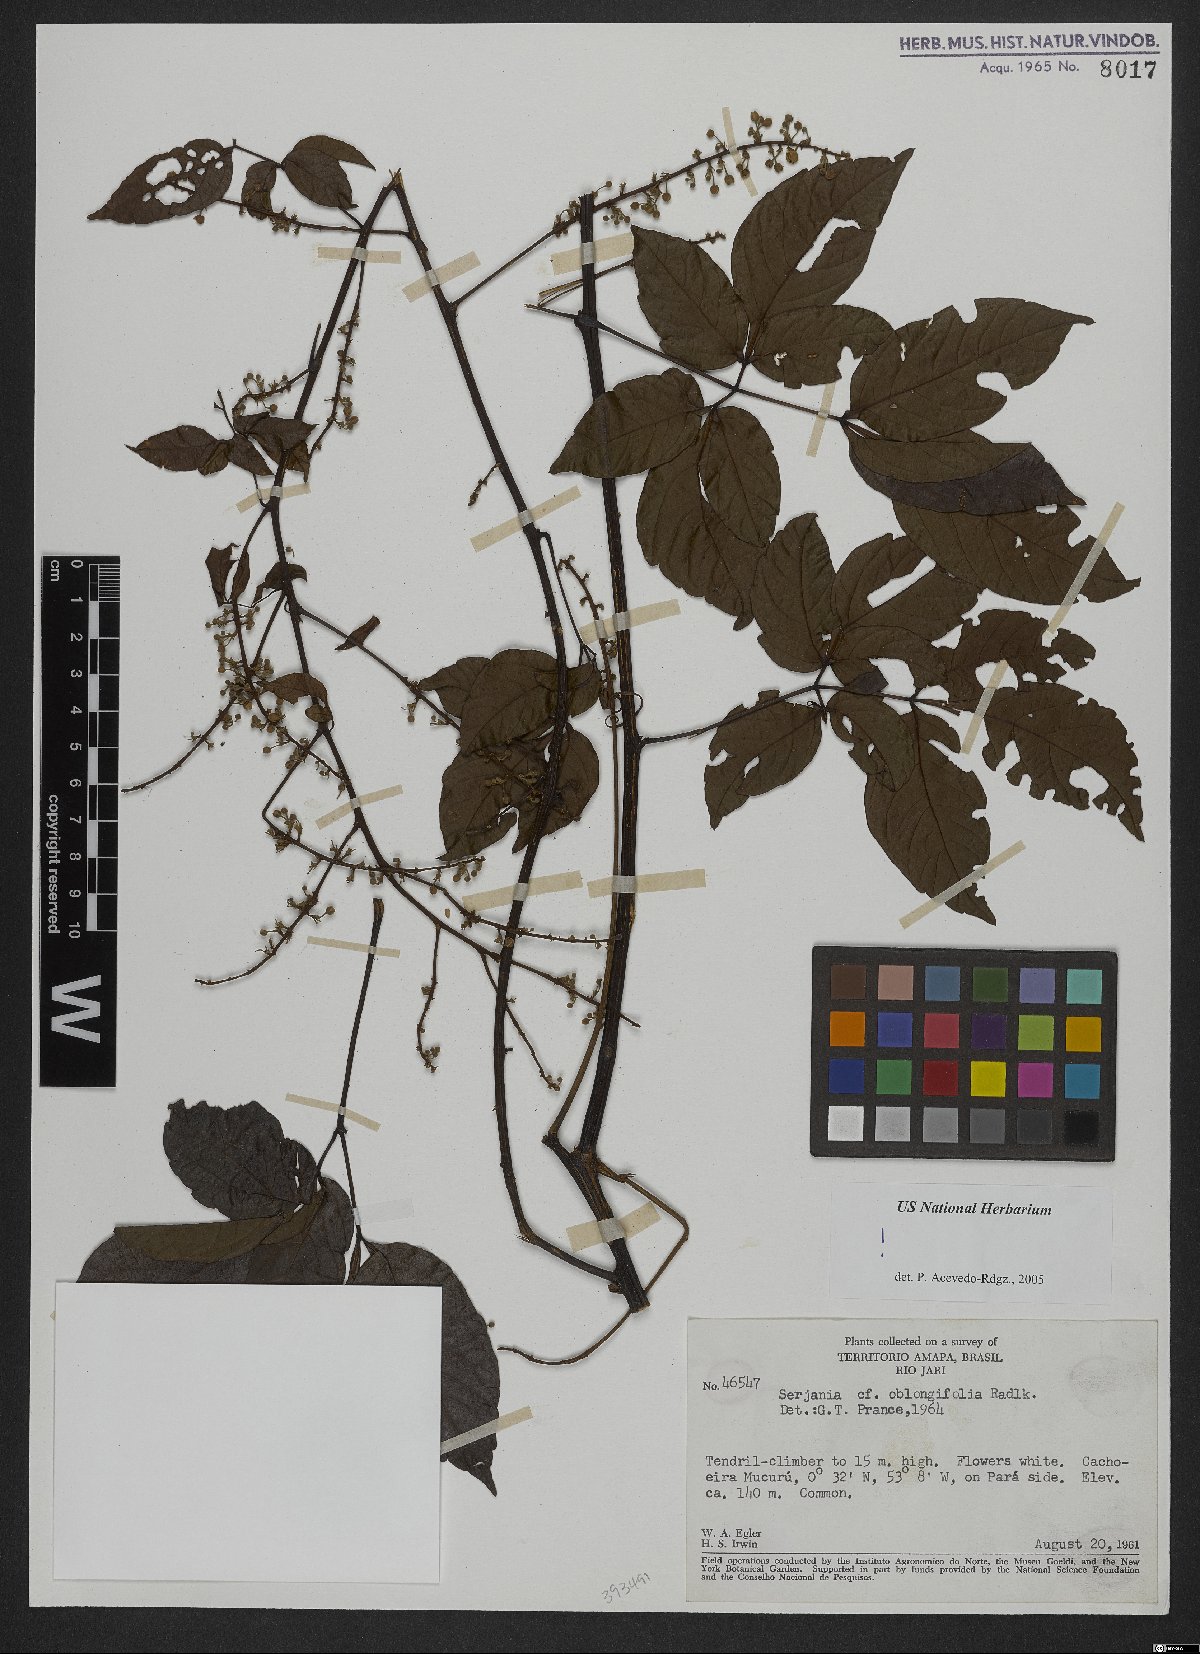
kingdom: Plantae
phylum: Tracheophyta
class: Magnoliopsida
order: Sapindales
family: Sapindaceae
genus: Serjania
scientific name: Serjania oblongifolia
